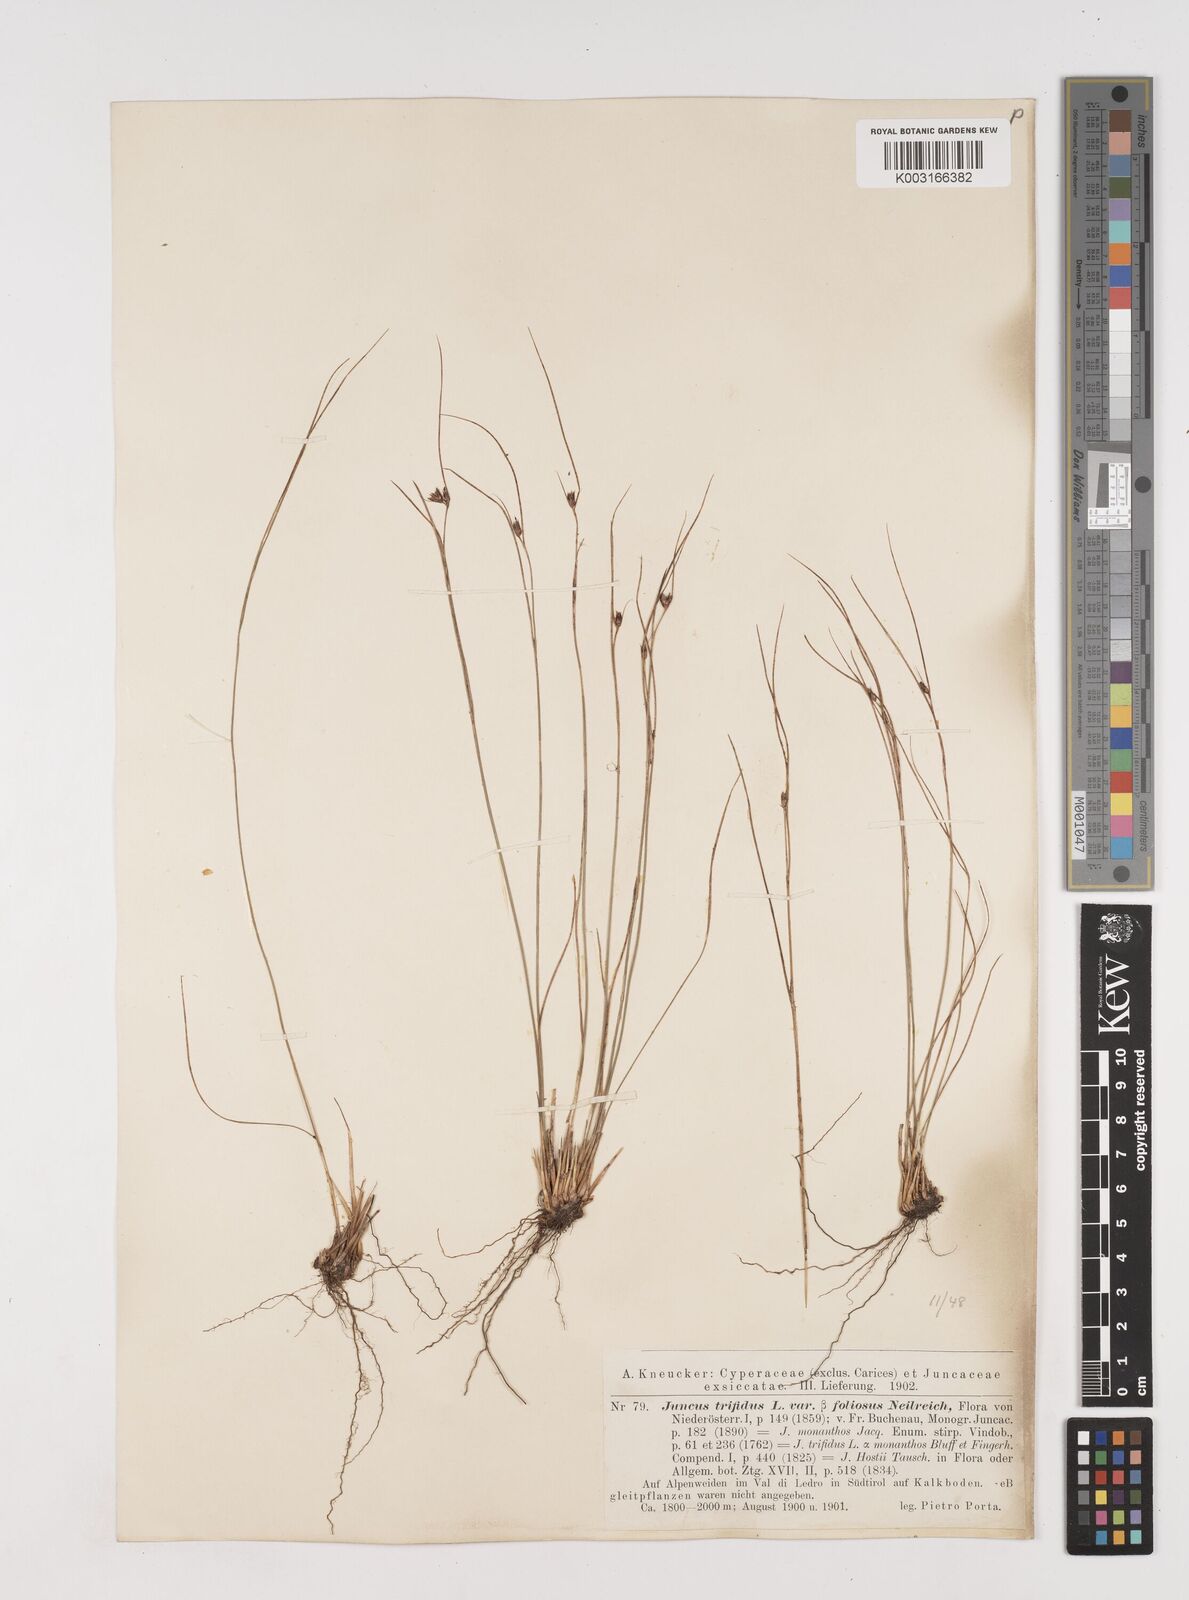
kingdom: Plantae
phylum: Tracheophyta
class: Liliopsida
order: Poales
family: Juncaceae
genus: Oreojuncus
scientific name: Oreojuncus trifidus
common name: Highland rush
